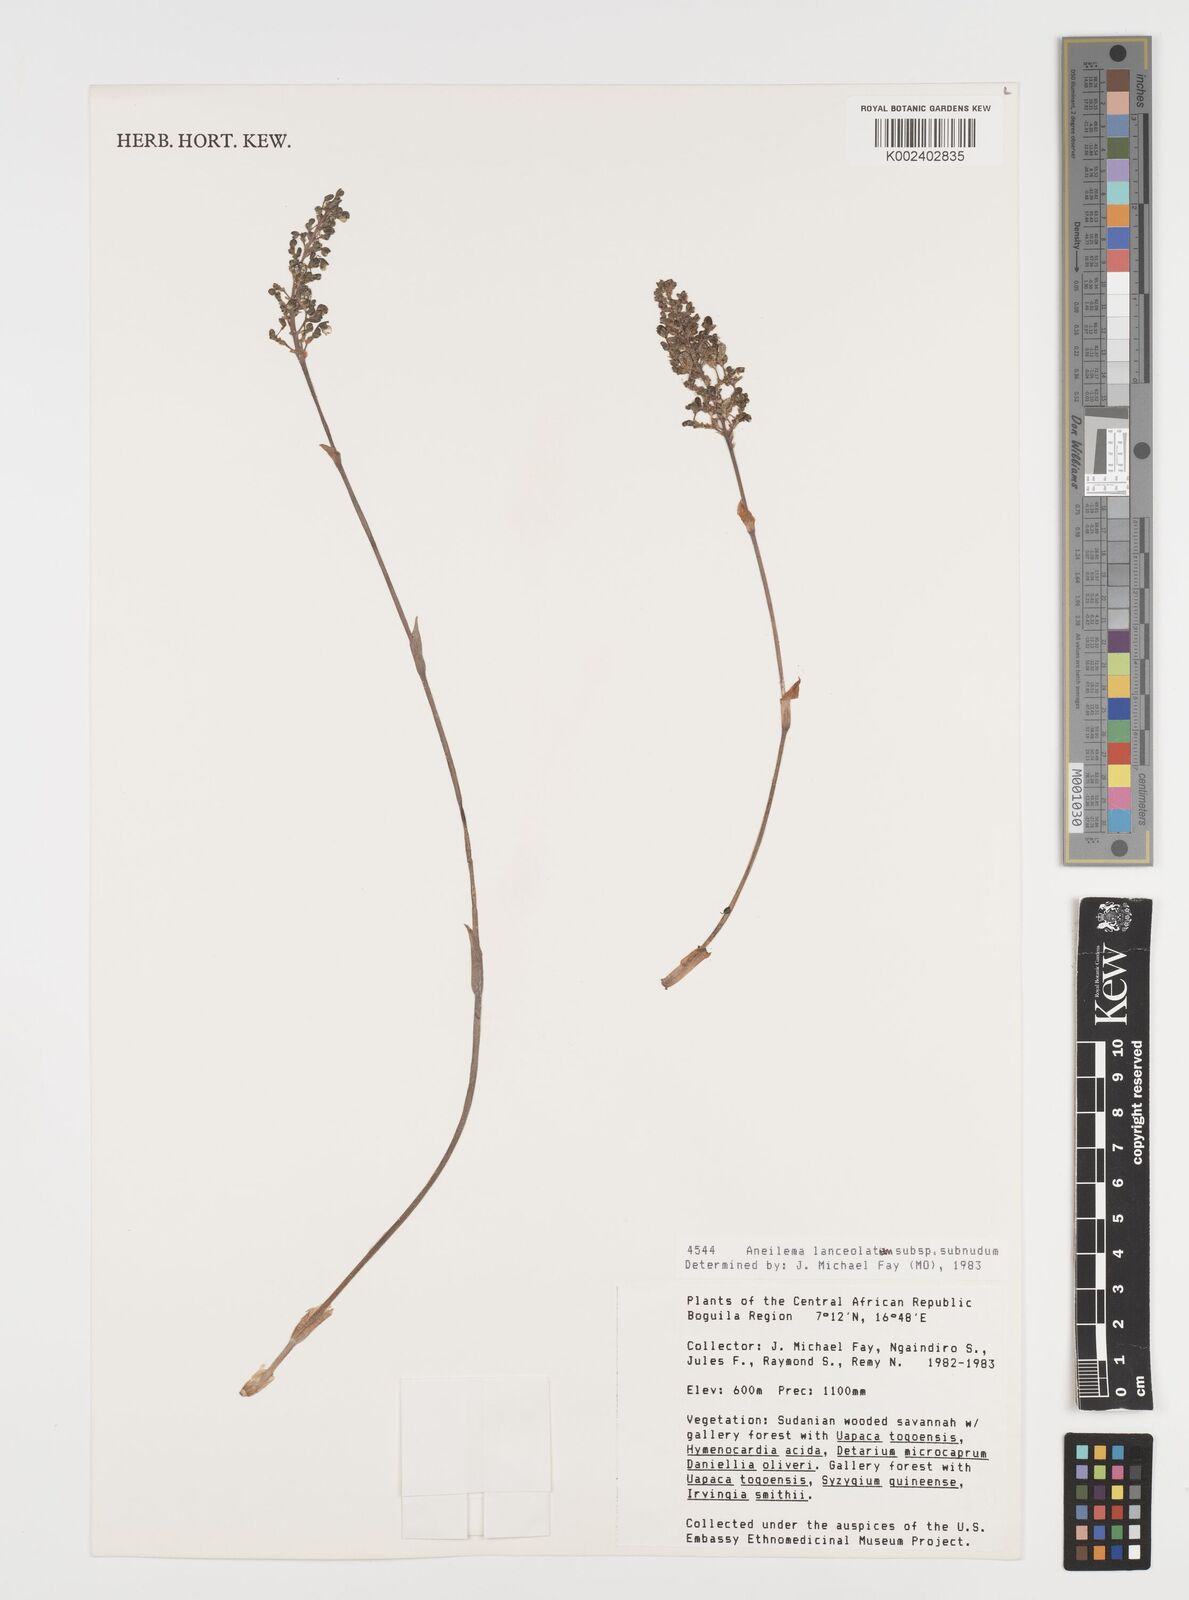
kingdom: Plantae
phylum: Tracheophyta
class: Liliopsida
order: Commelinales
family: Commelinaceae
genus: Aneilema
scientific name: Aneilema lanceolatum
